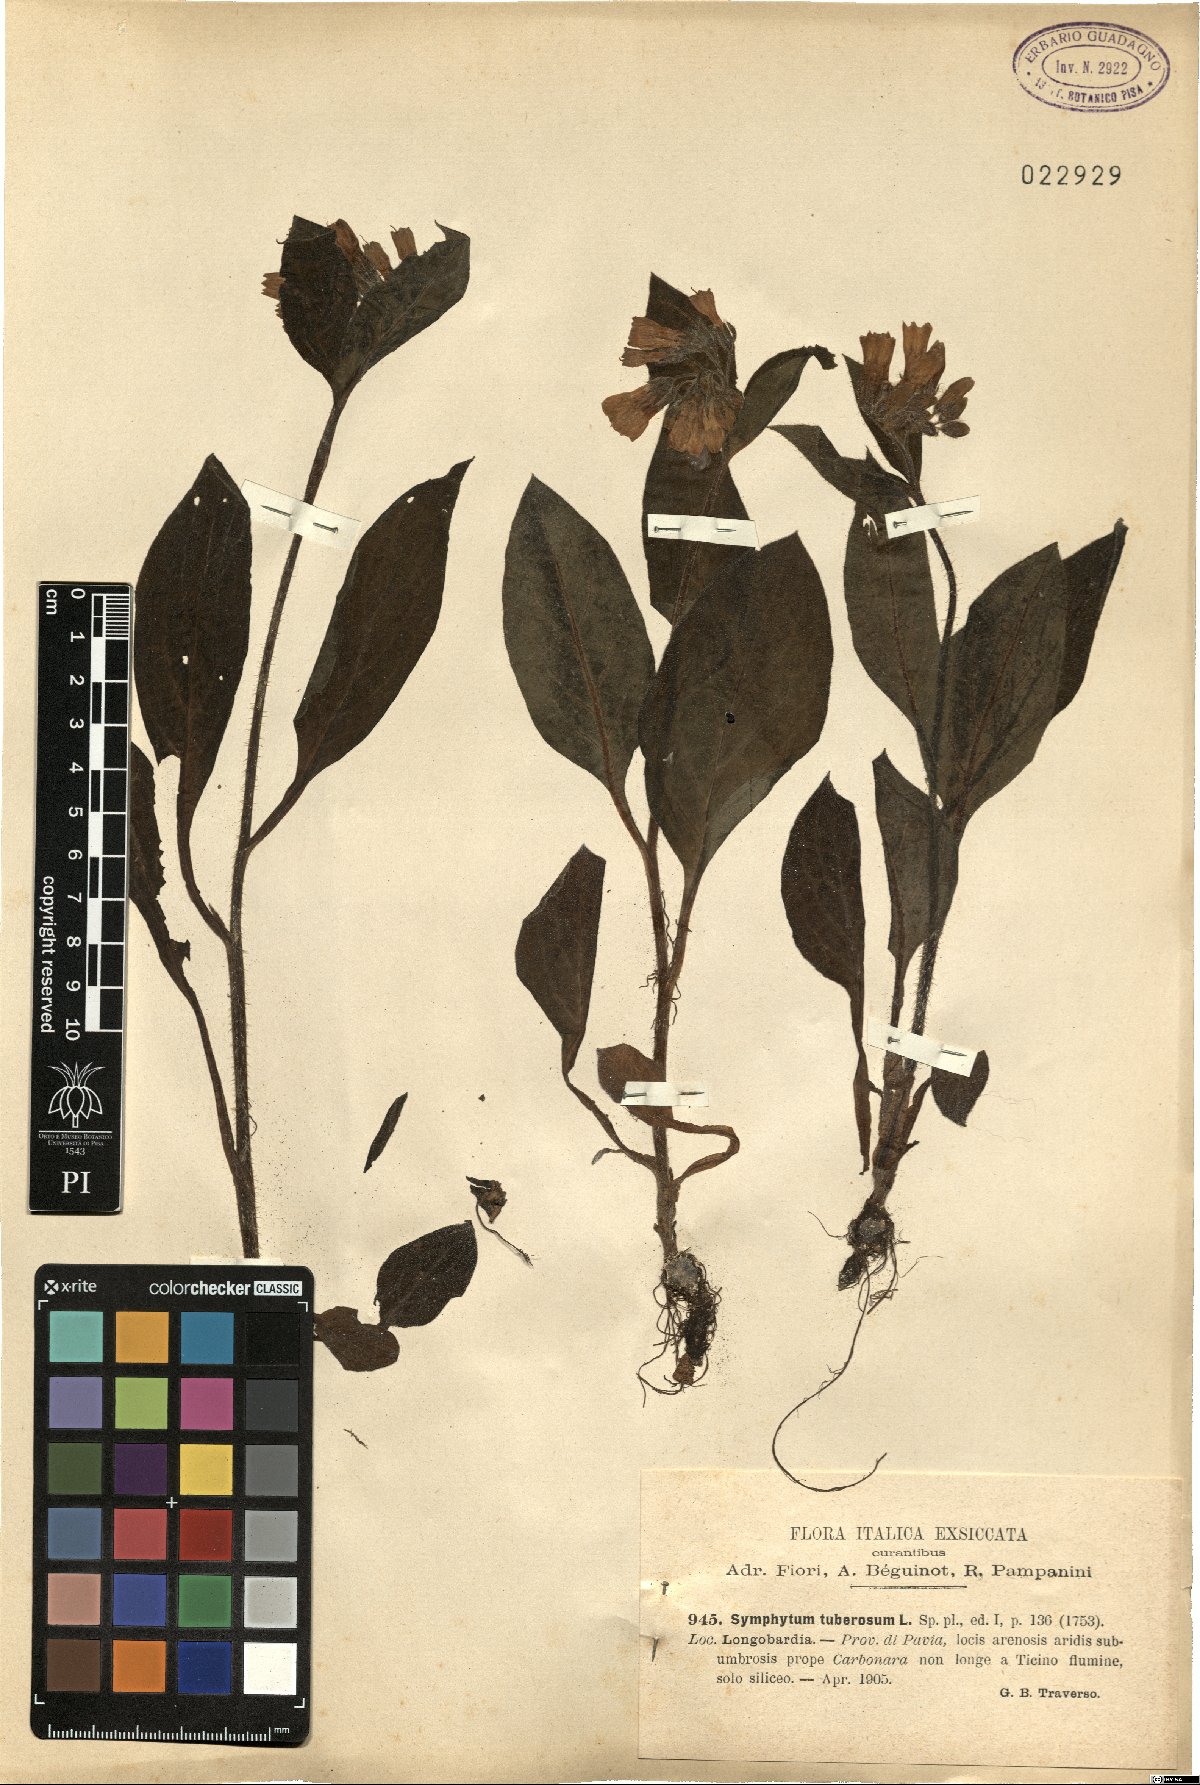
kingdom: Plantae
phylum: Tracheophyta
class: Magnoliopsida
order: Boraginales
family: Boraginaceae
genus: Symphytum
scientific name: Symphytum tuberosum
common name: Tuberous comfrey
